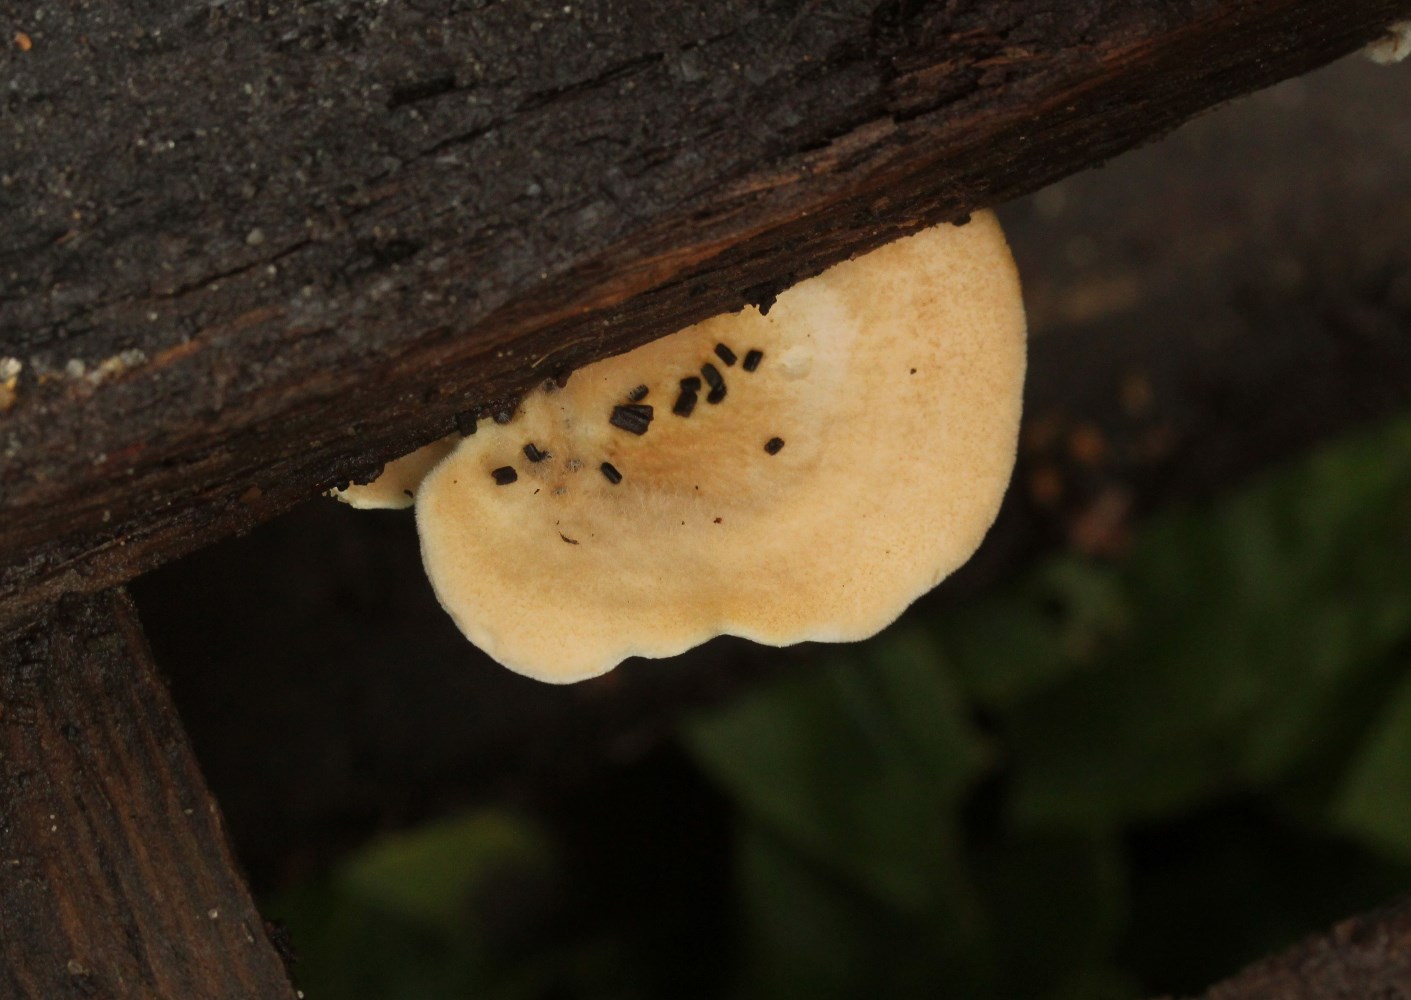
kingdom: Fungi
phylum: Basidiomycota
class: Agaricomycetes
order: Boletales
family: Tapinellaceae
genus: Tapinella
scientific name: Tapinella panuoides
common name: tømmer-viftesvamp
